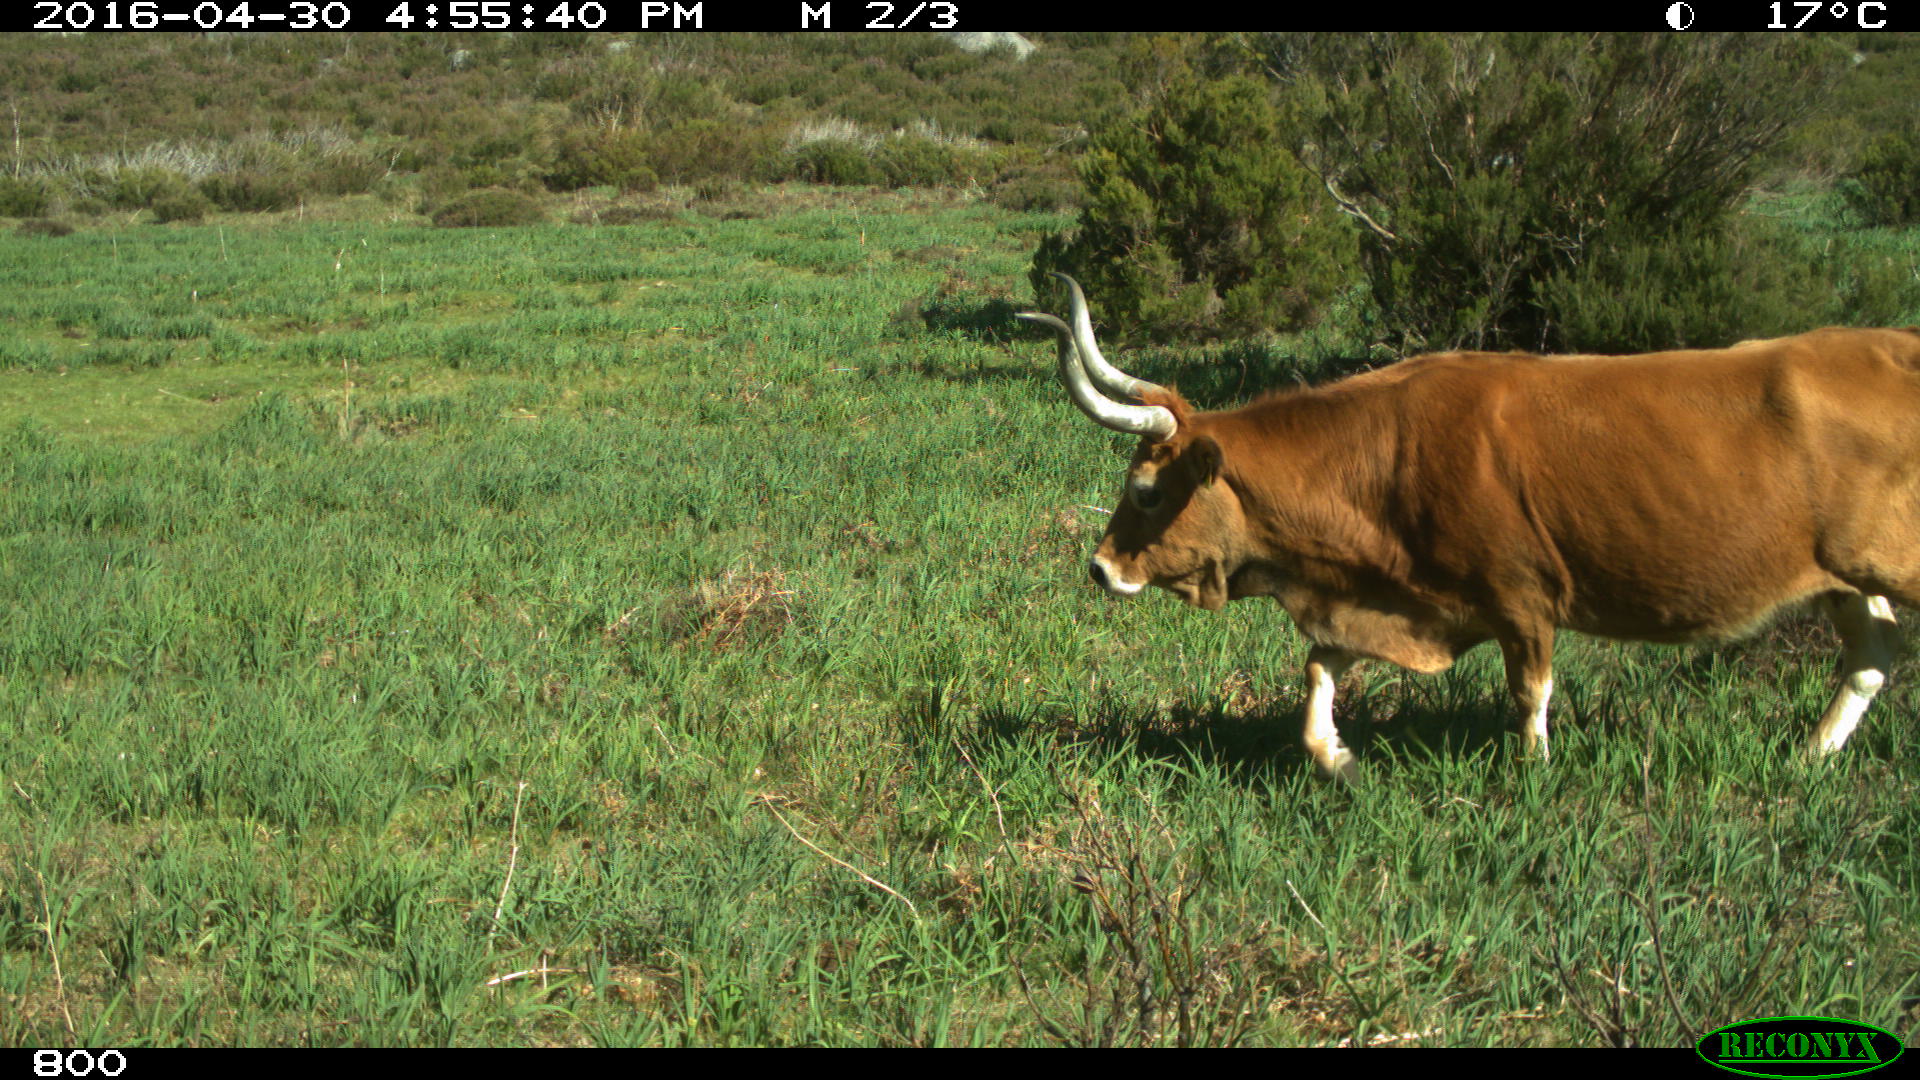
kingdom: Animalia
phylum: Chordata
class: Mammalia
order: Artiodactyla
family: Bovidae
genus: Bos
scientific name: Bos taurus
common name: Domesticated cattle
